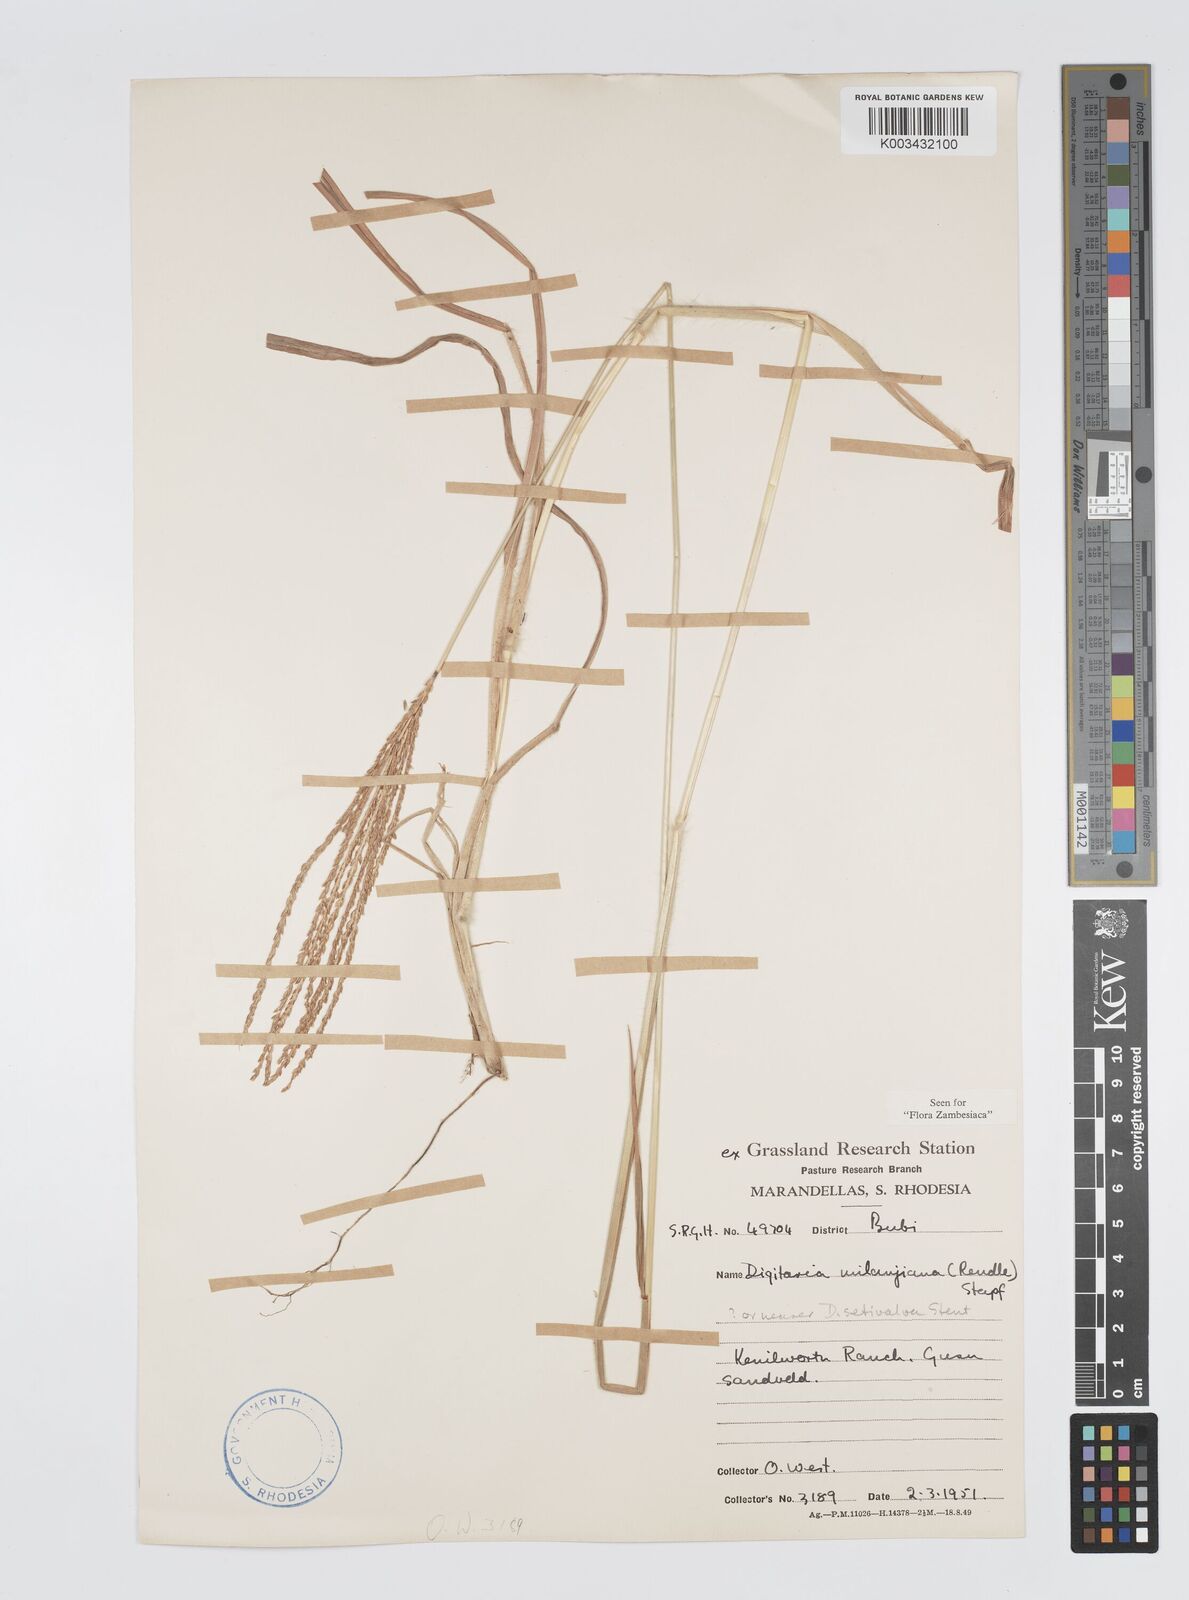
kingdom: Plantae
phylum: Tracheophyta
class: Liliopsida
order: Poales
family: Poaceae
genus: Digitaria
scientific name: Digitaria milanjiana
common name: Madagascar crabgrass
